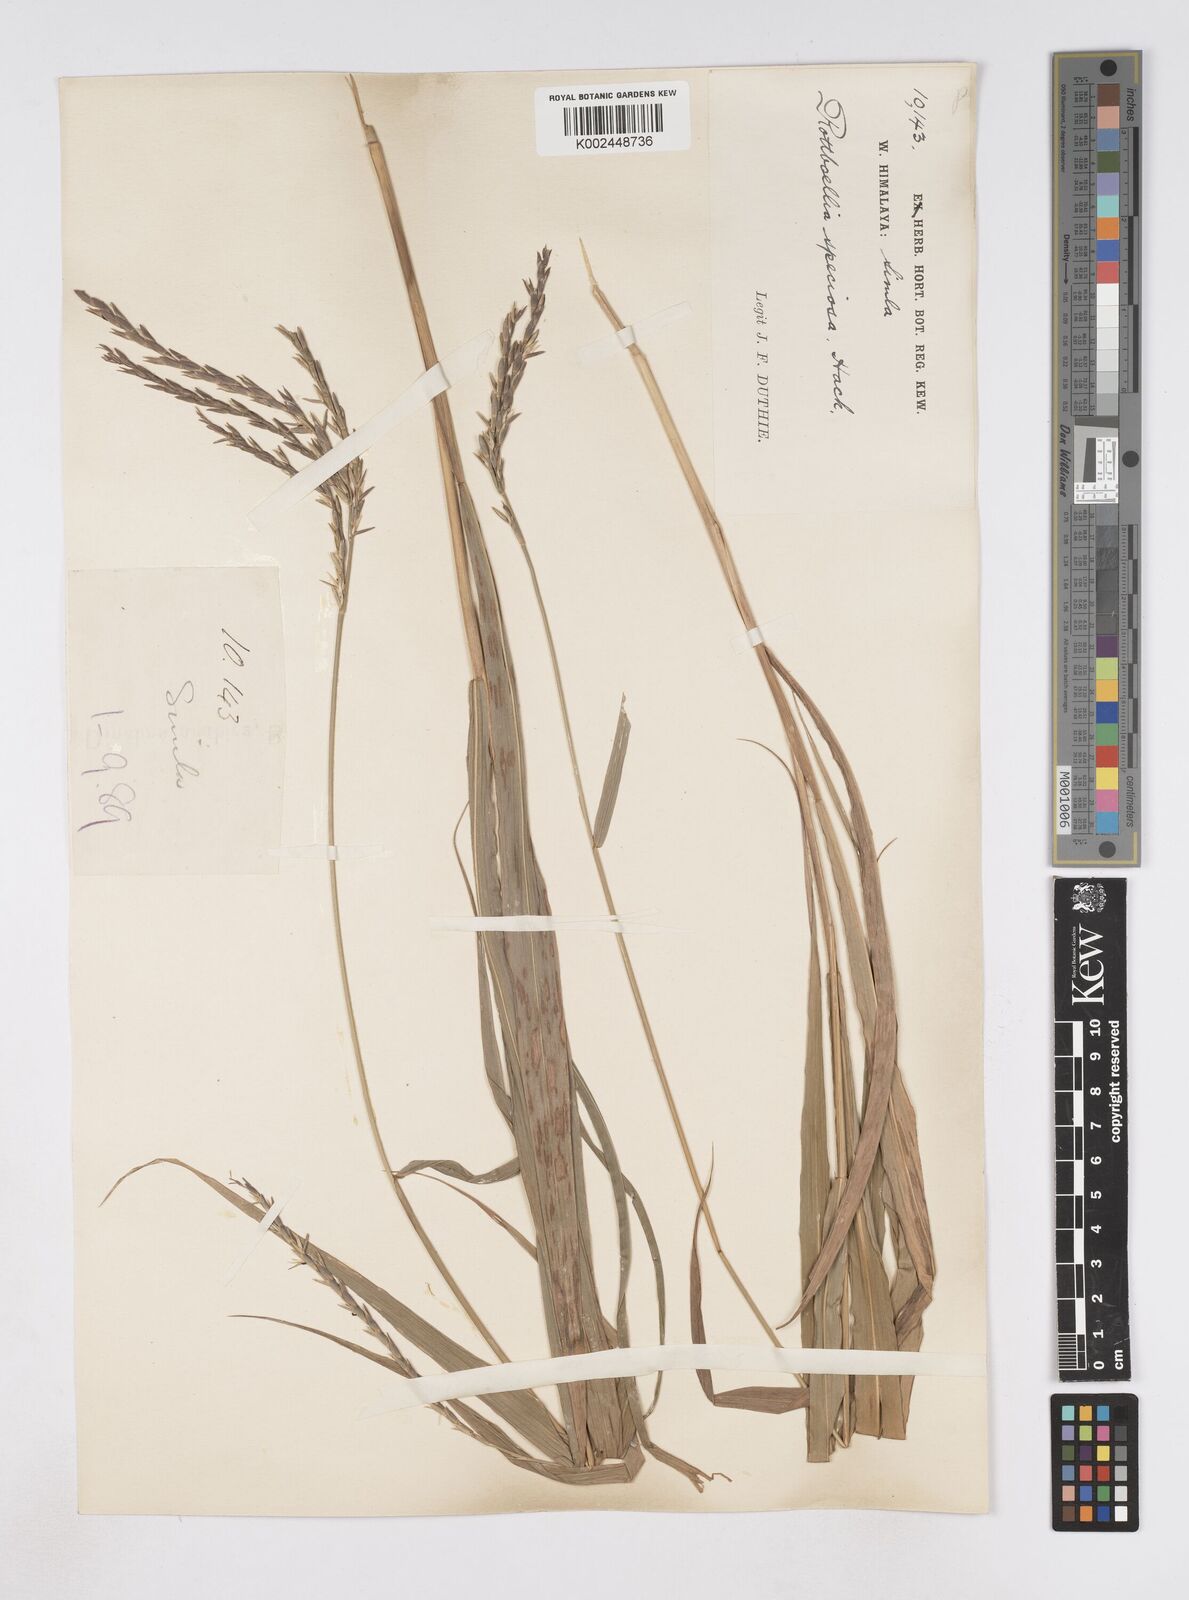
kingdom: Plantae
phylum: Tracheophyta
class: Liliopsida
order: Poales
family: Poaceae
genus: Phacelurus
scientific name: Phacelurus speciosus
